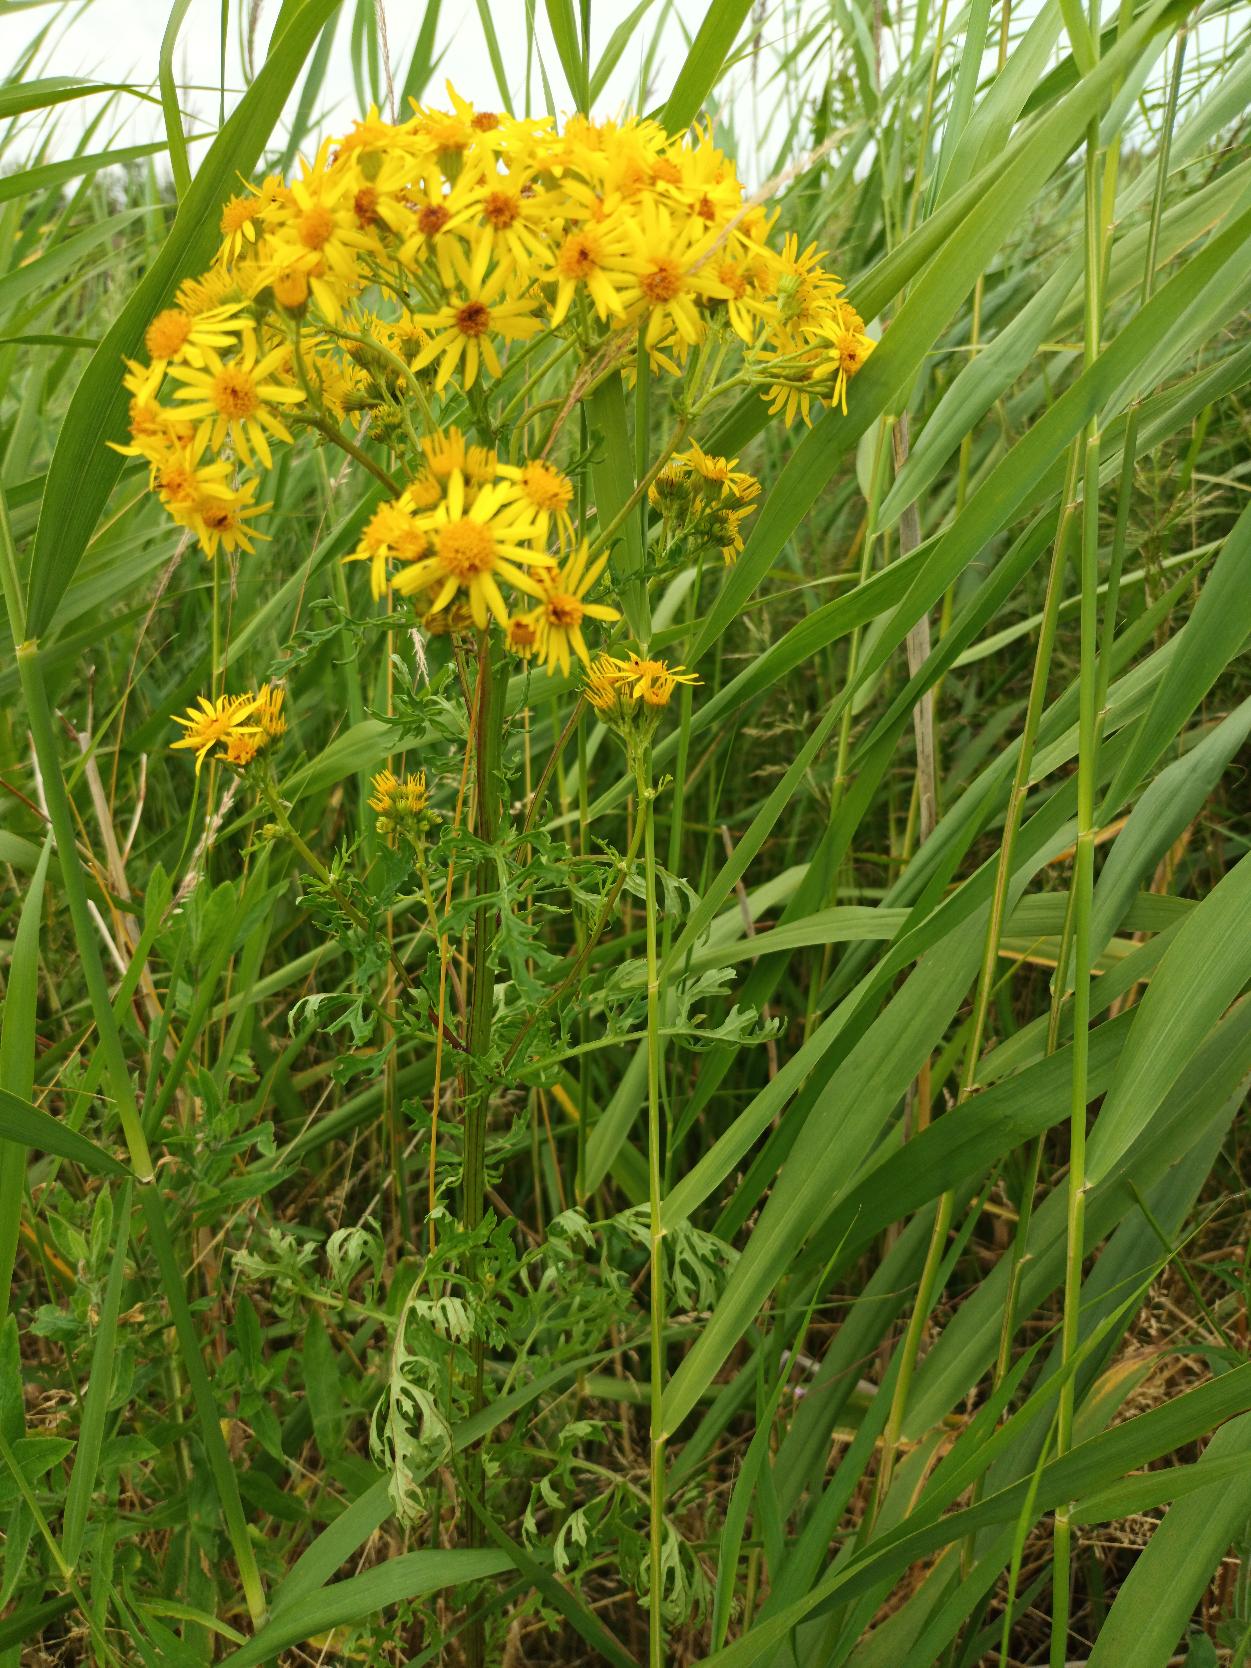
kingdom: Plantae
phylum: Tracheophyta
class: Magnoliopsida
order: Asterales
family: Asteraceae
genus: Jacobaea
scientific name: Jacobaea vulgaris
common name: Eng-brandbæger
